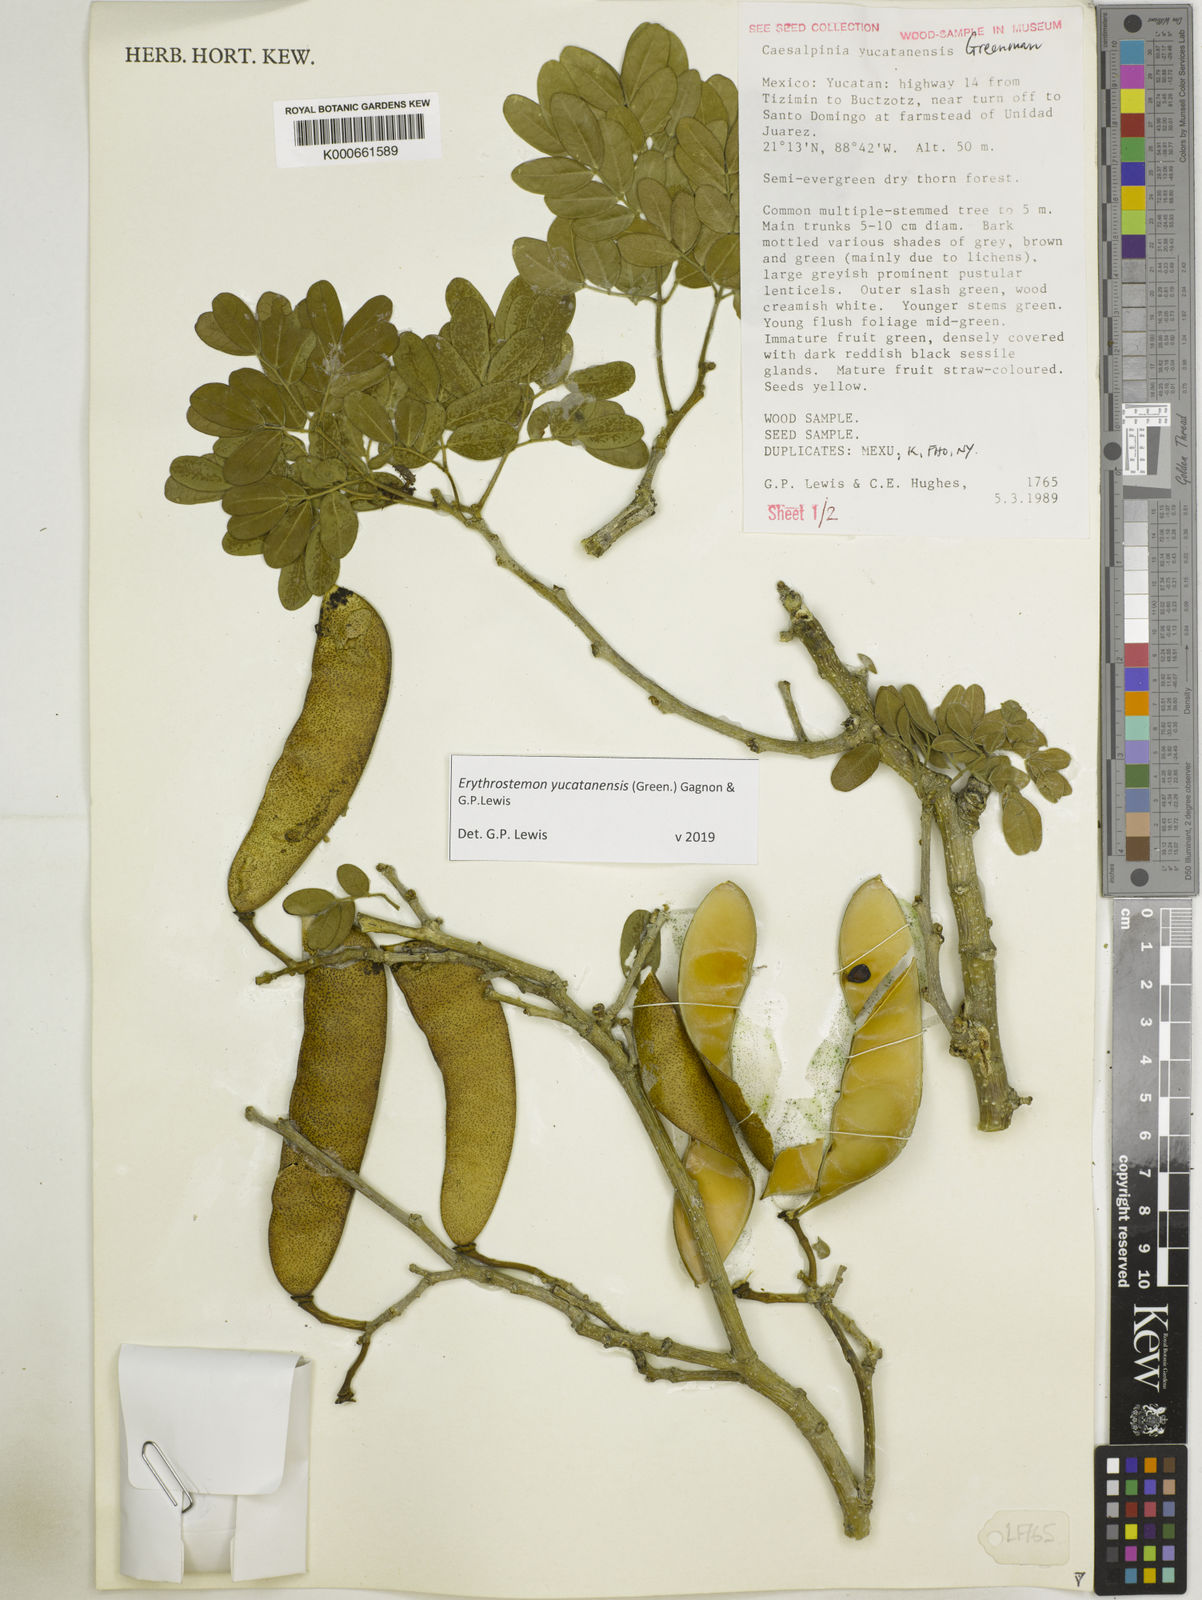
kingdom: Plantae
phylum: Tracheophyta
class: Magnoliopsida
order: Fabales
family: Fabaceae
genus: Caesalpinia
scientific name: Caesalpinia
